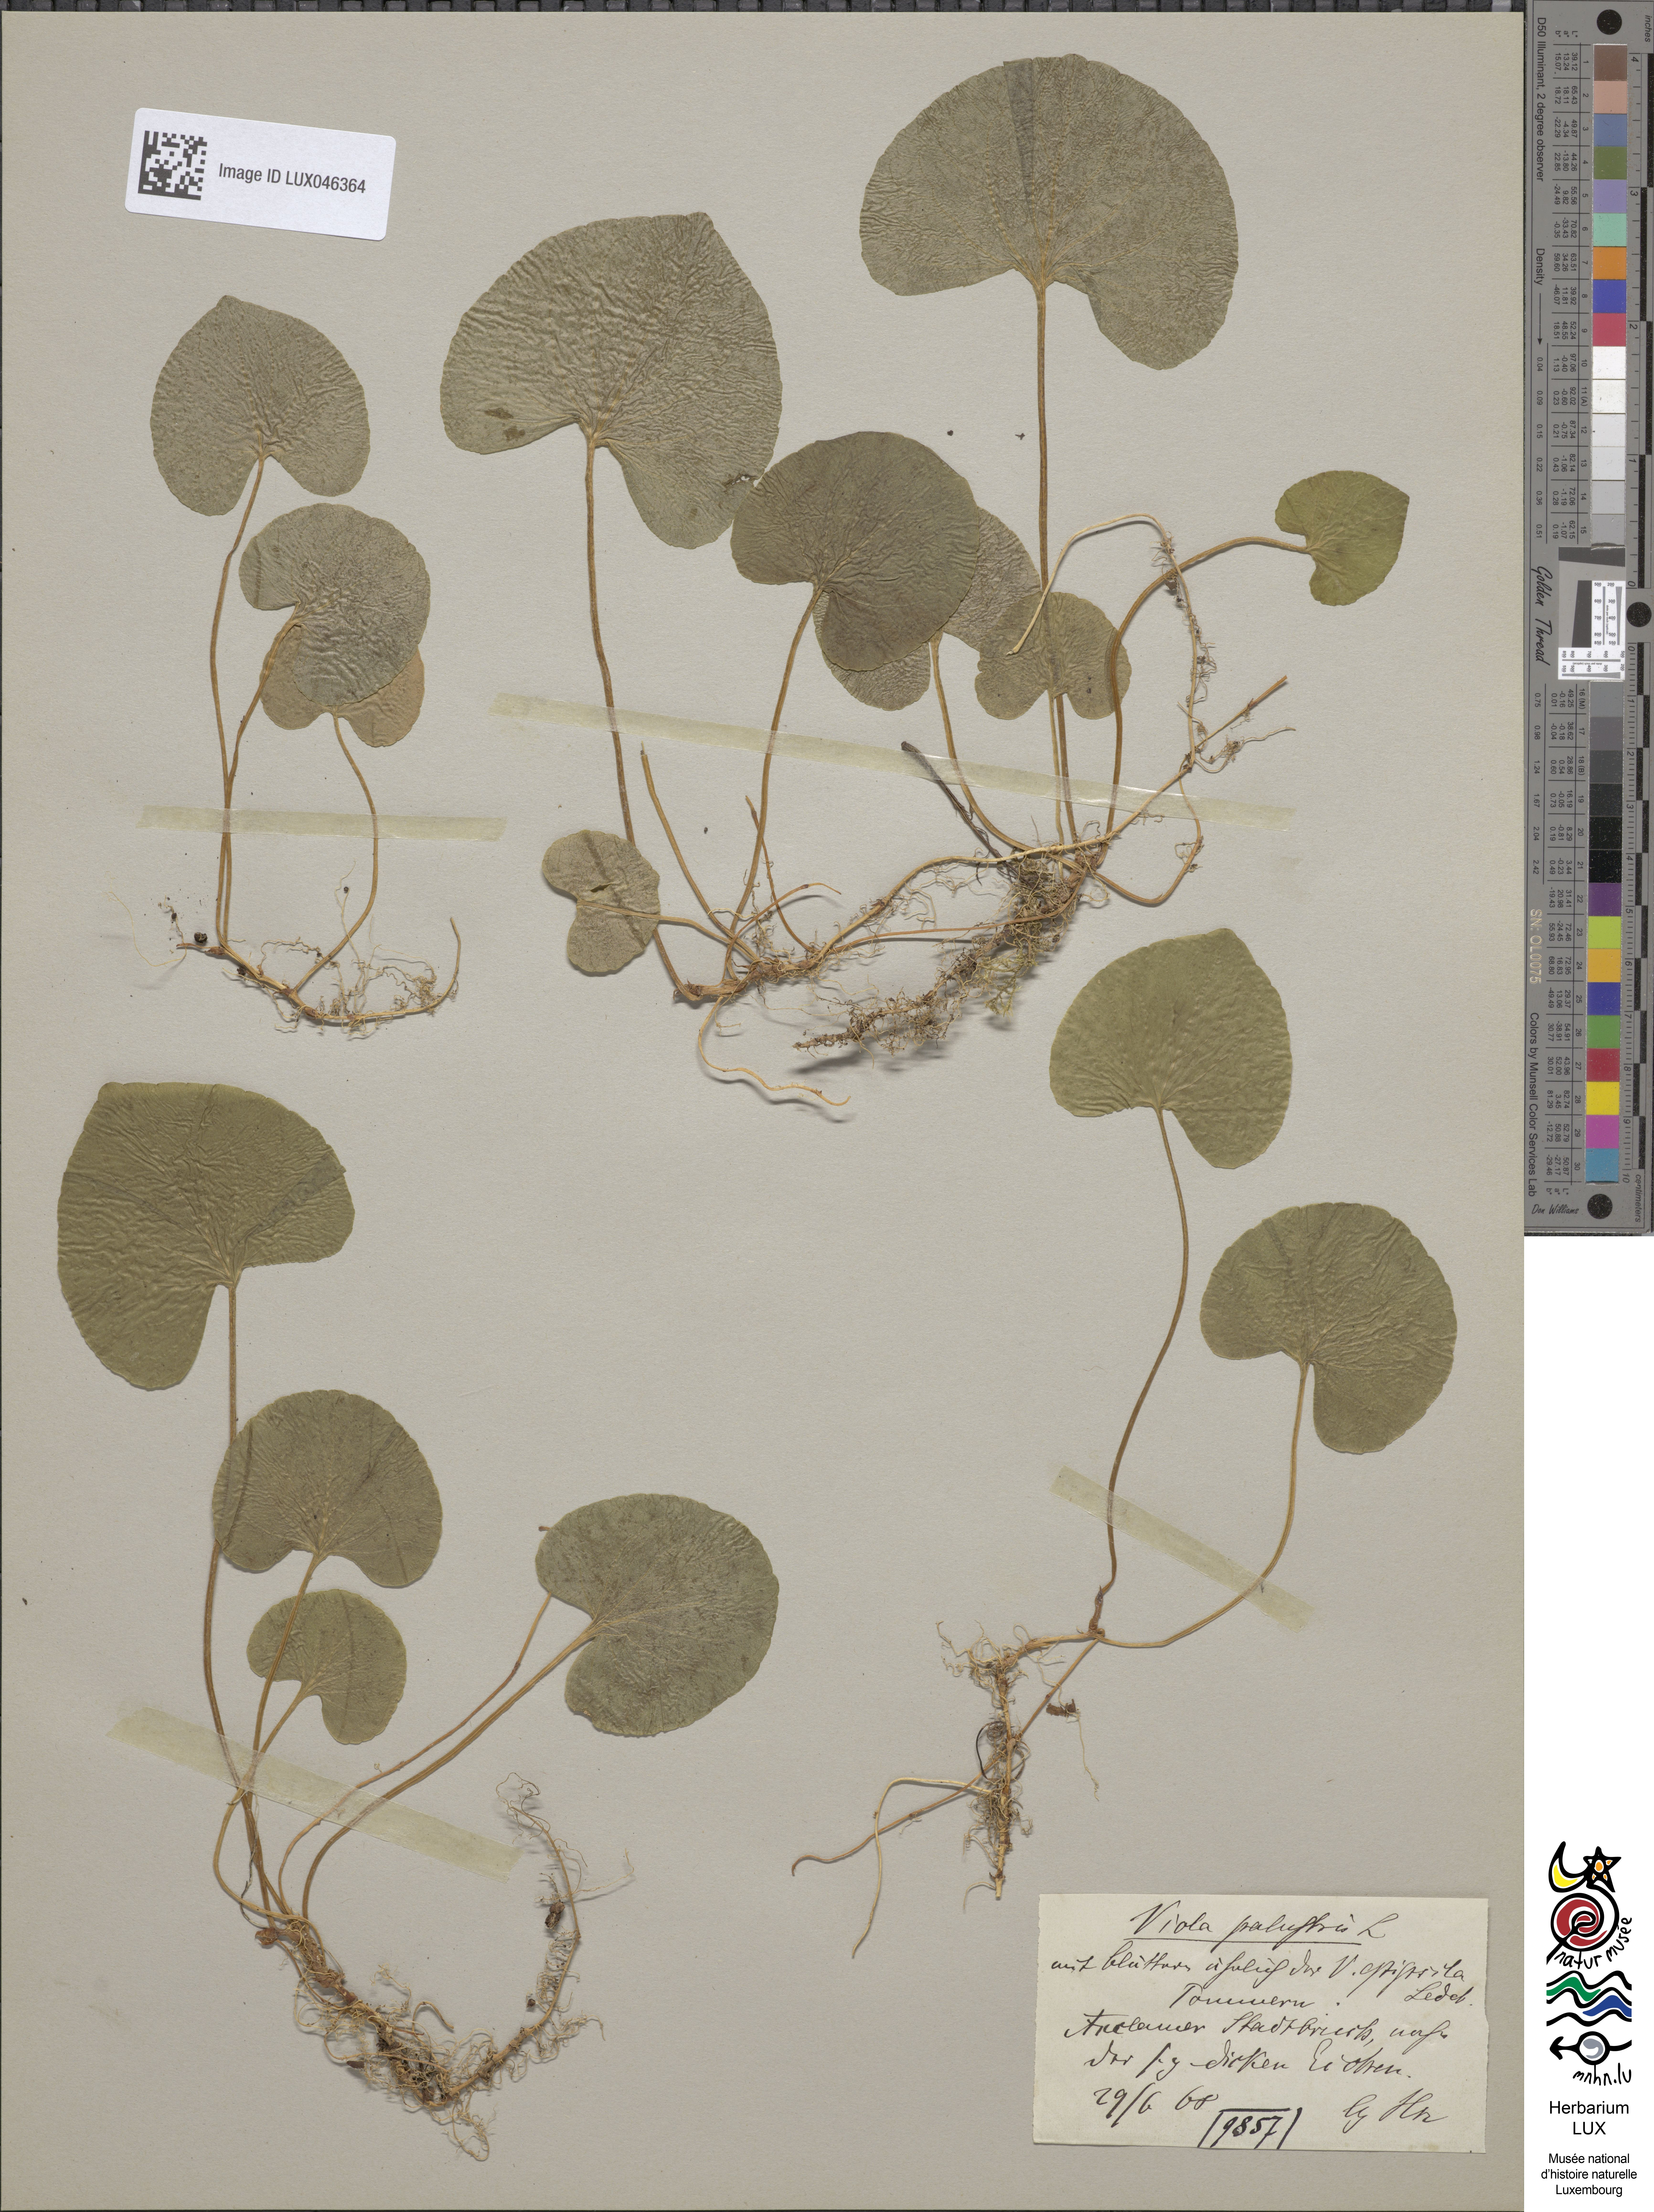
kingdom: Plantae
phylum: Tracheophyta
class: Magnoliopsida
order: Malpighiales
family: Violaceae
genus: Viola
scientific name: Viola palustris
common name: Marsh violet
